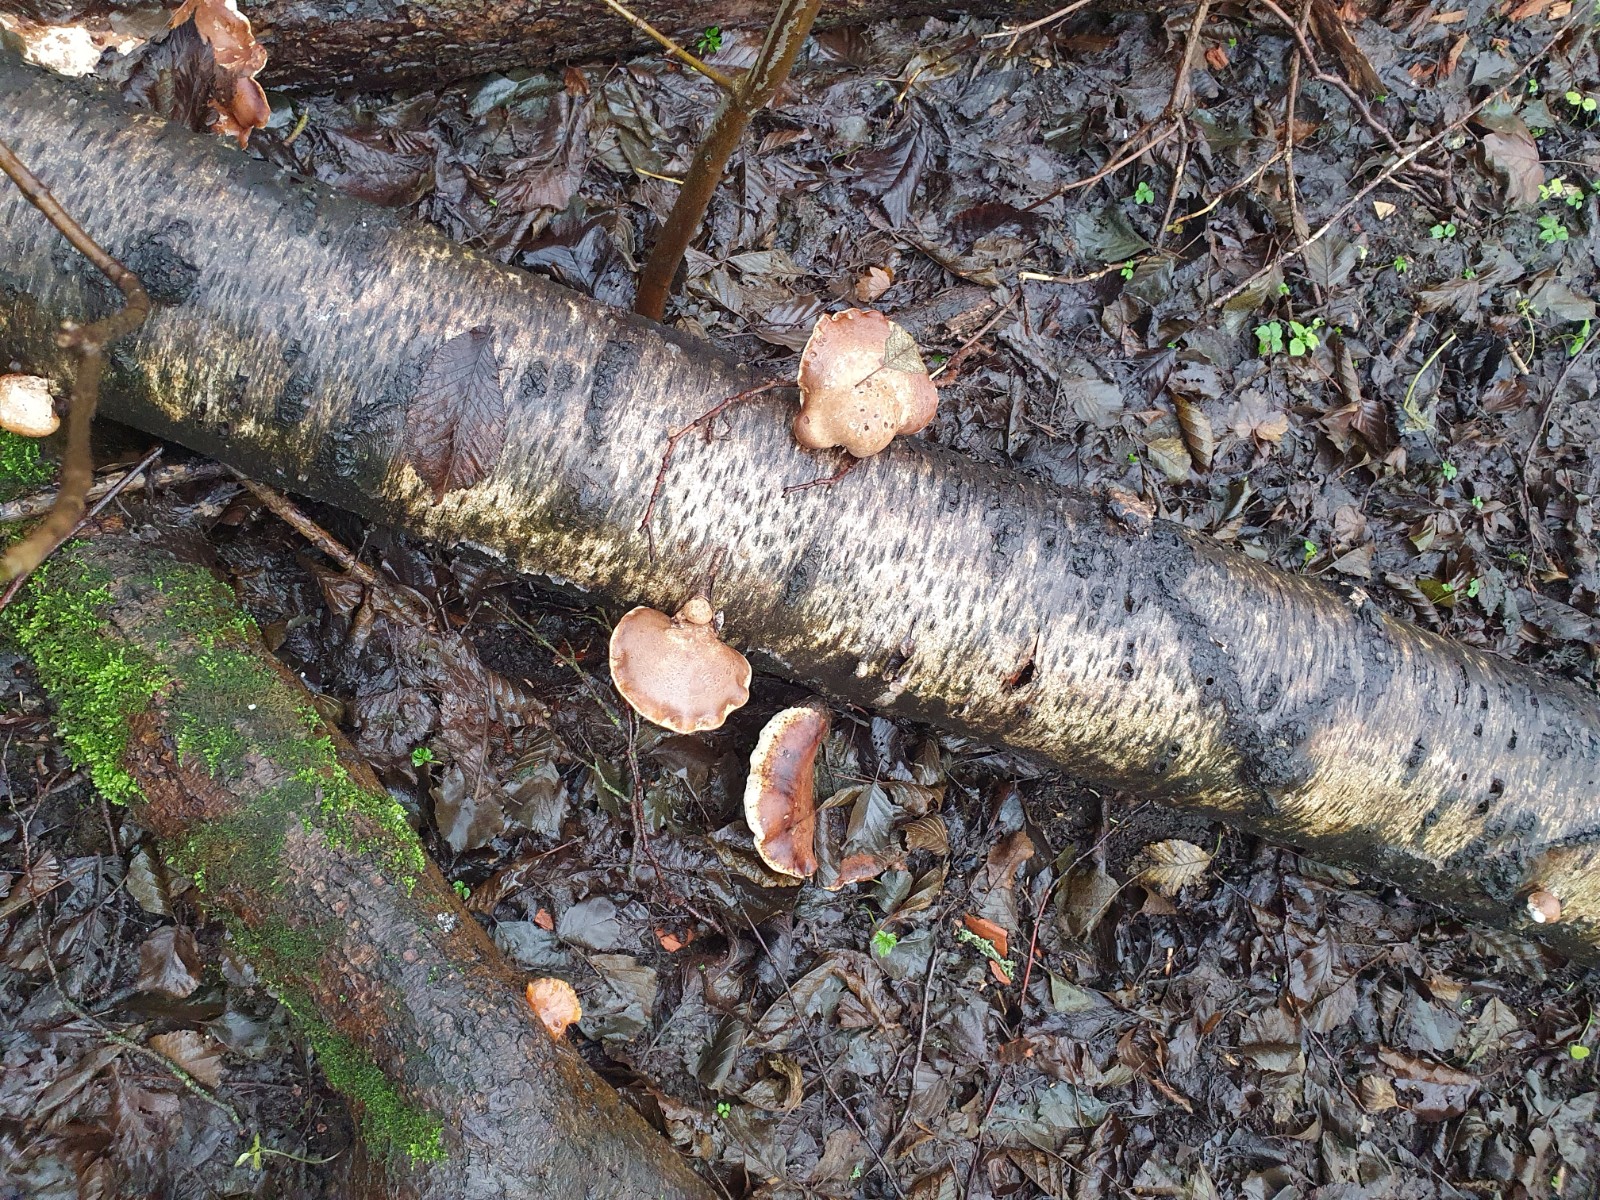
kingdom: Fungi
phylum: Basidiomycota
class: Agaricomycetes
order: Polyporales
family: Fomitopsidaceae
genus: Fomitopsis
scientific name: Fomitopsis betulina
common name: birkeporesvamp
